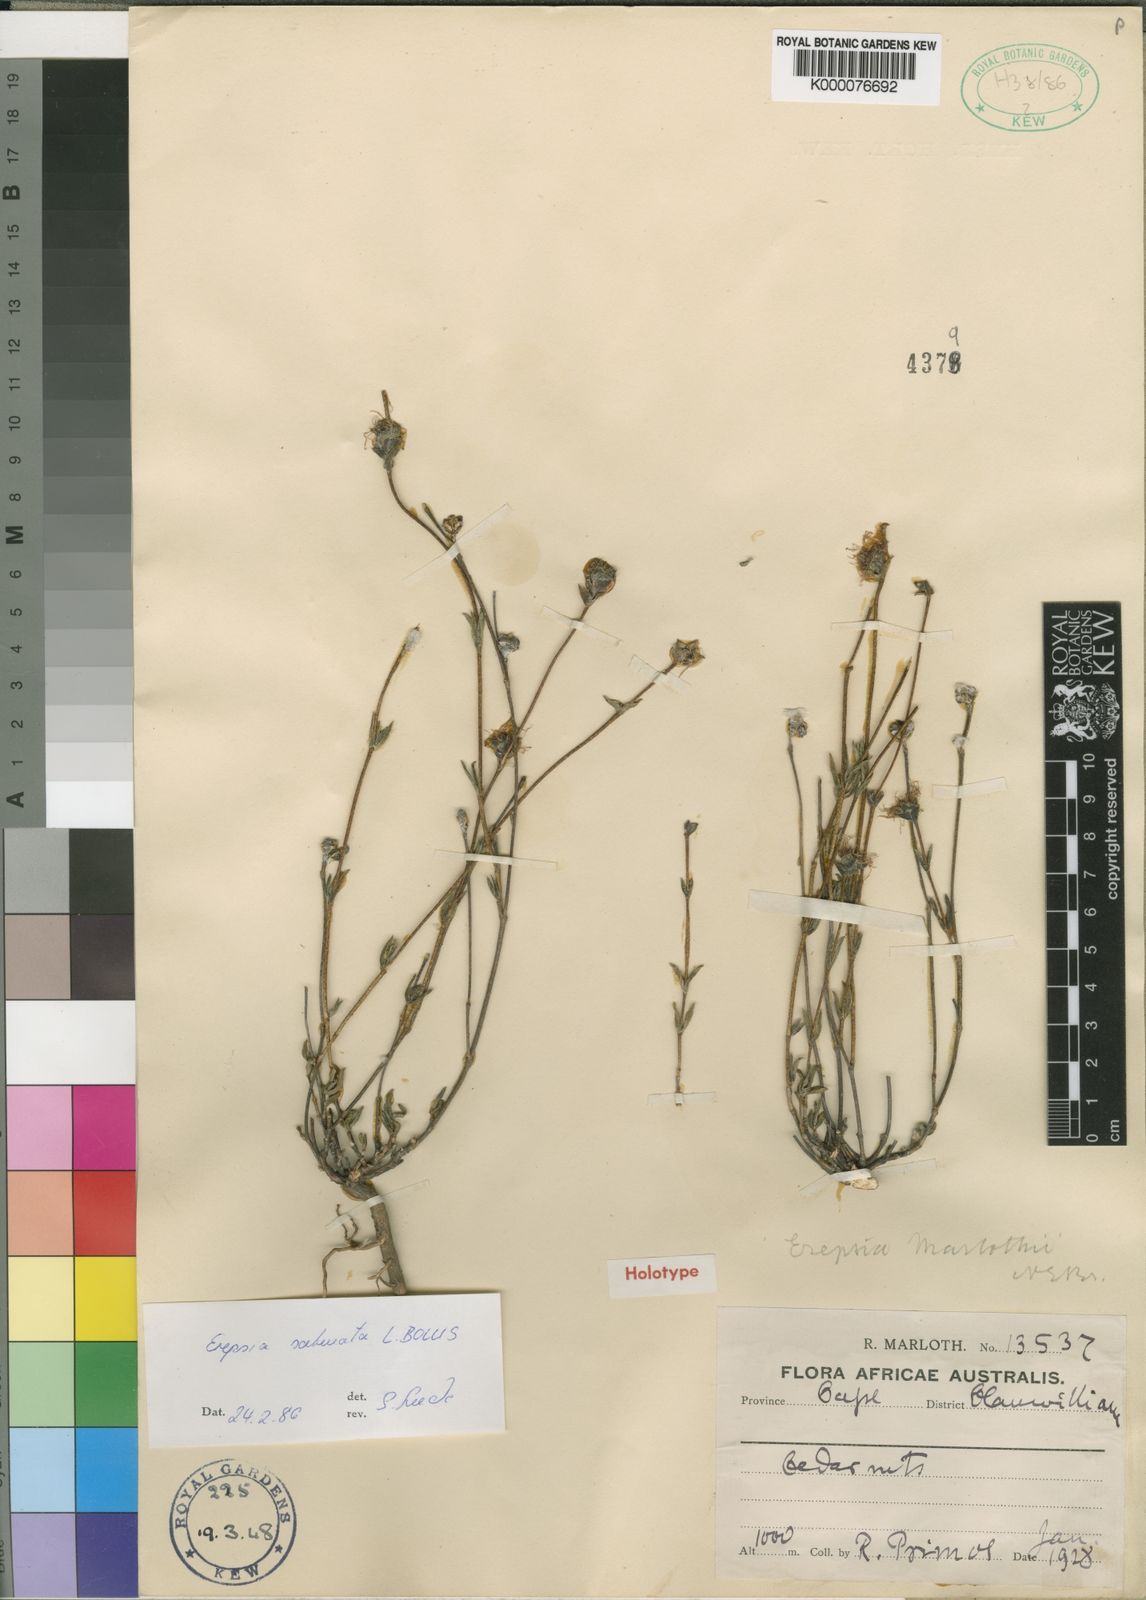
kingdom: Plantae
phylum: Tracheophyta
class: Magnoliopsida
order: Caryophyllales
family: Aizoaceae
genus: Erepsia
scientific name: Erepsia saturata
